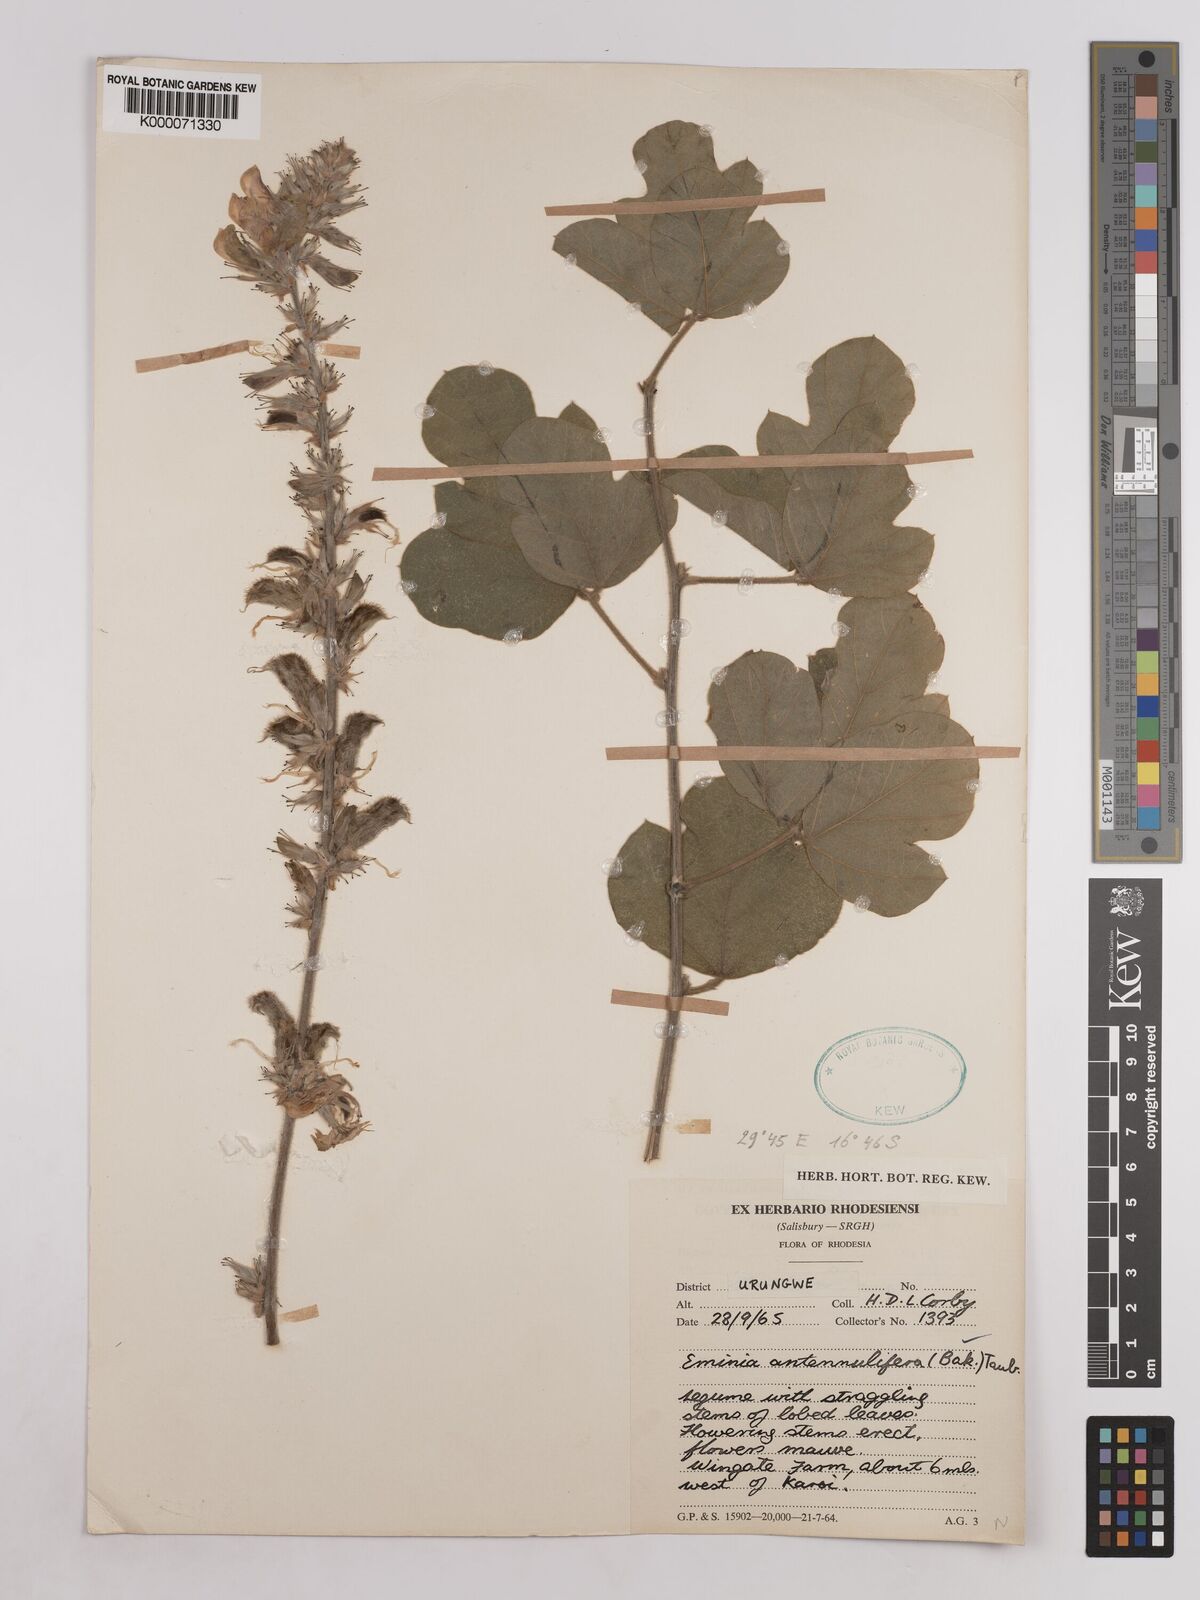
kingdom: Plantae
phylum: Tracheophyta
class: Magnoliopsida
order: Fabales
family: Fabaceae
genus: Eminia
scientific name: Eminia antennulifera
